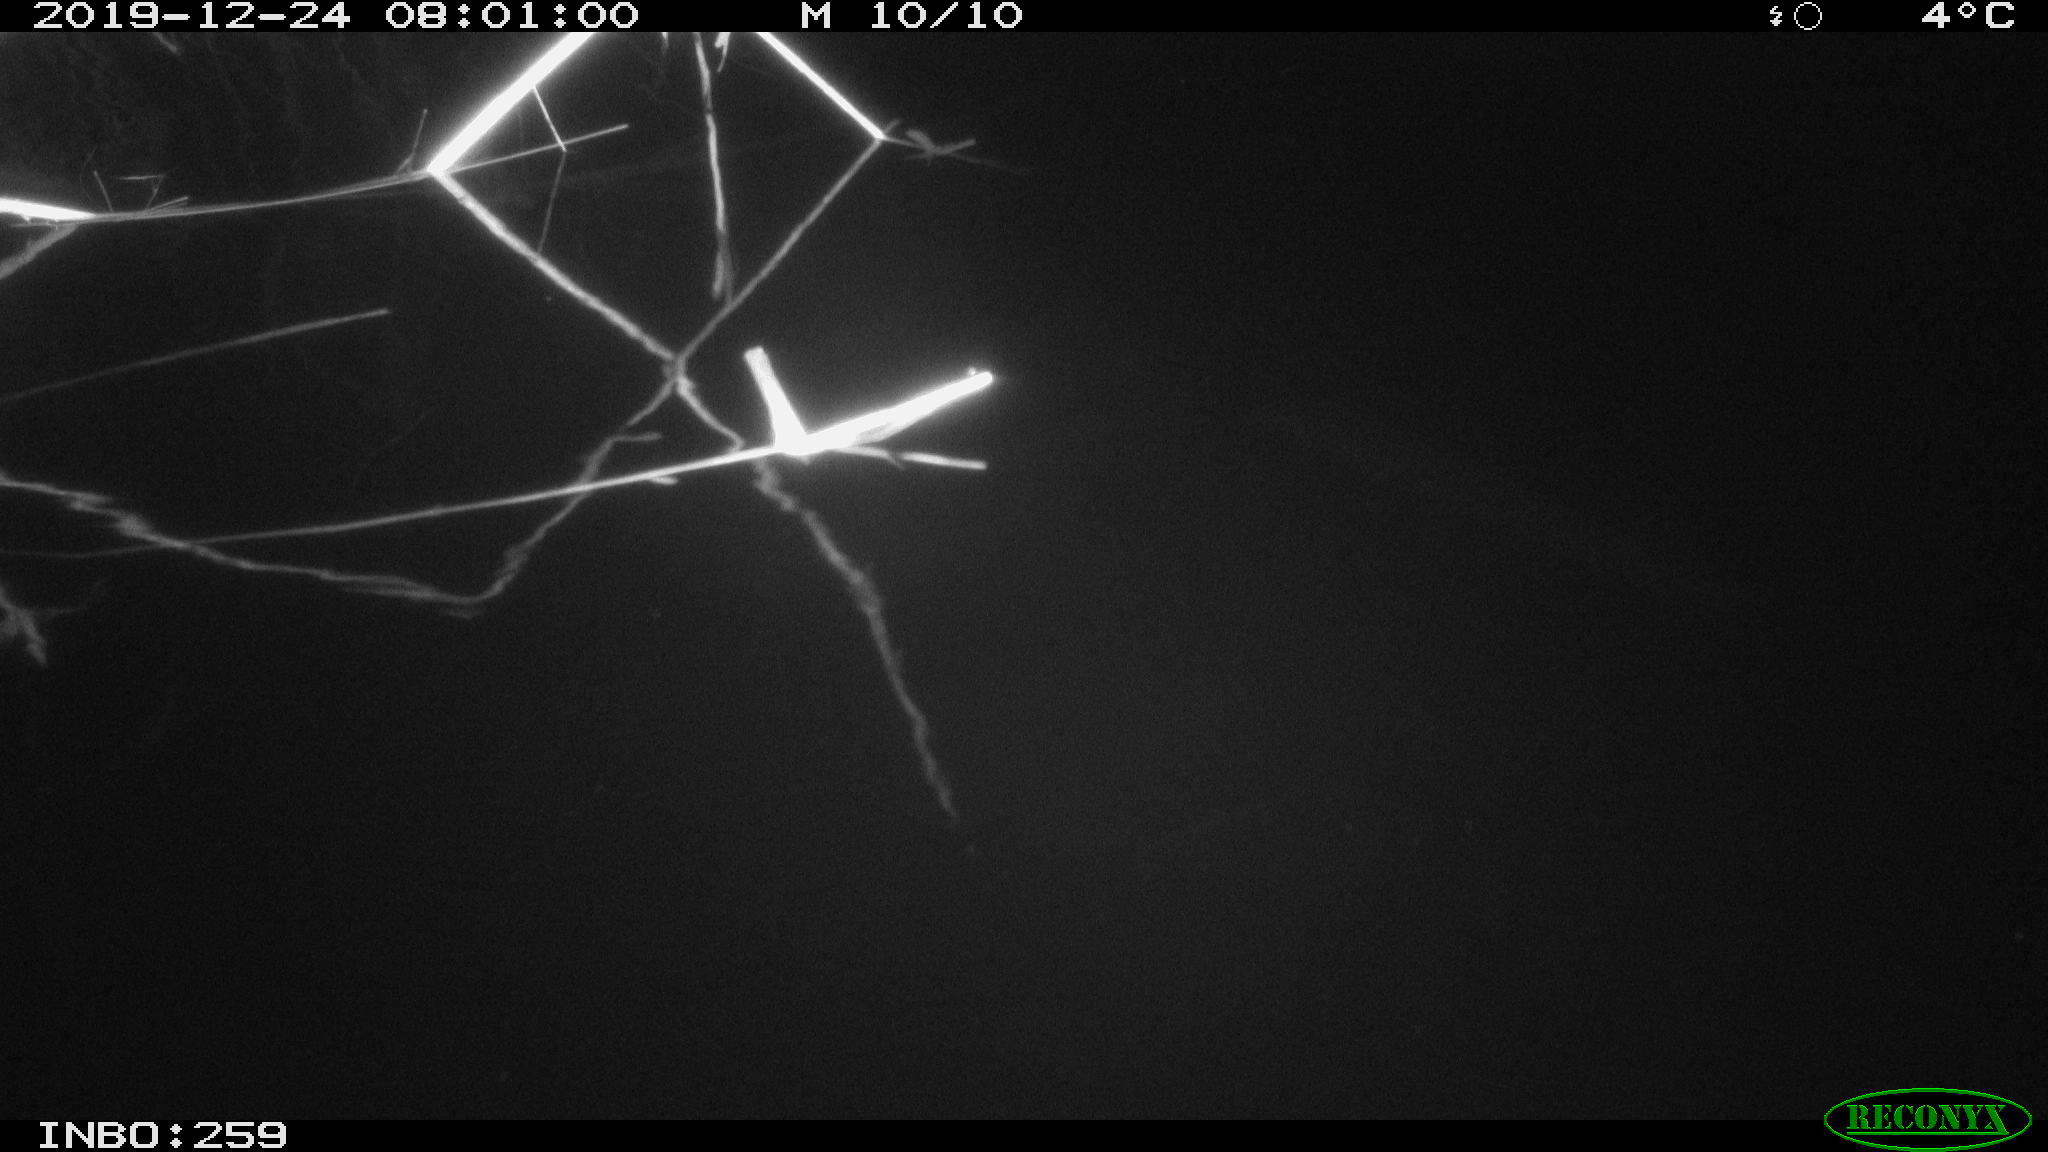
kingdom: Animalia
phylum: Chordata
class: Aves
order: Gruiformes
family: Rallidae
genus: Gallinula
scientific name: Gallinula chloropus
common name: Common moorhen
